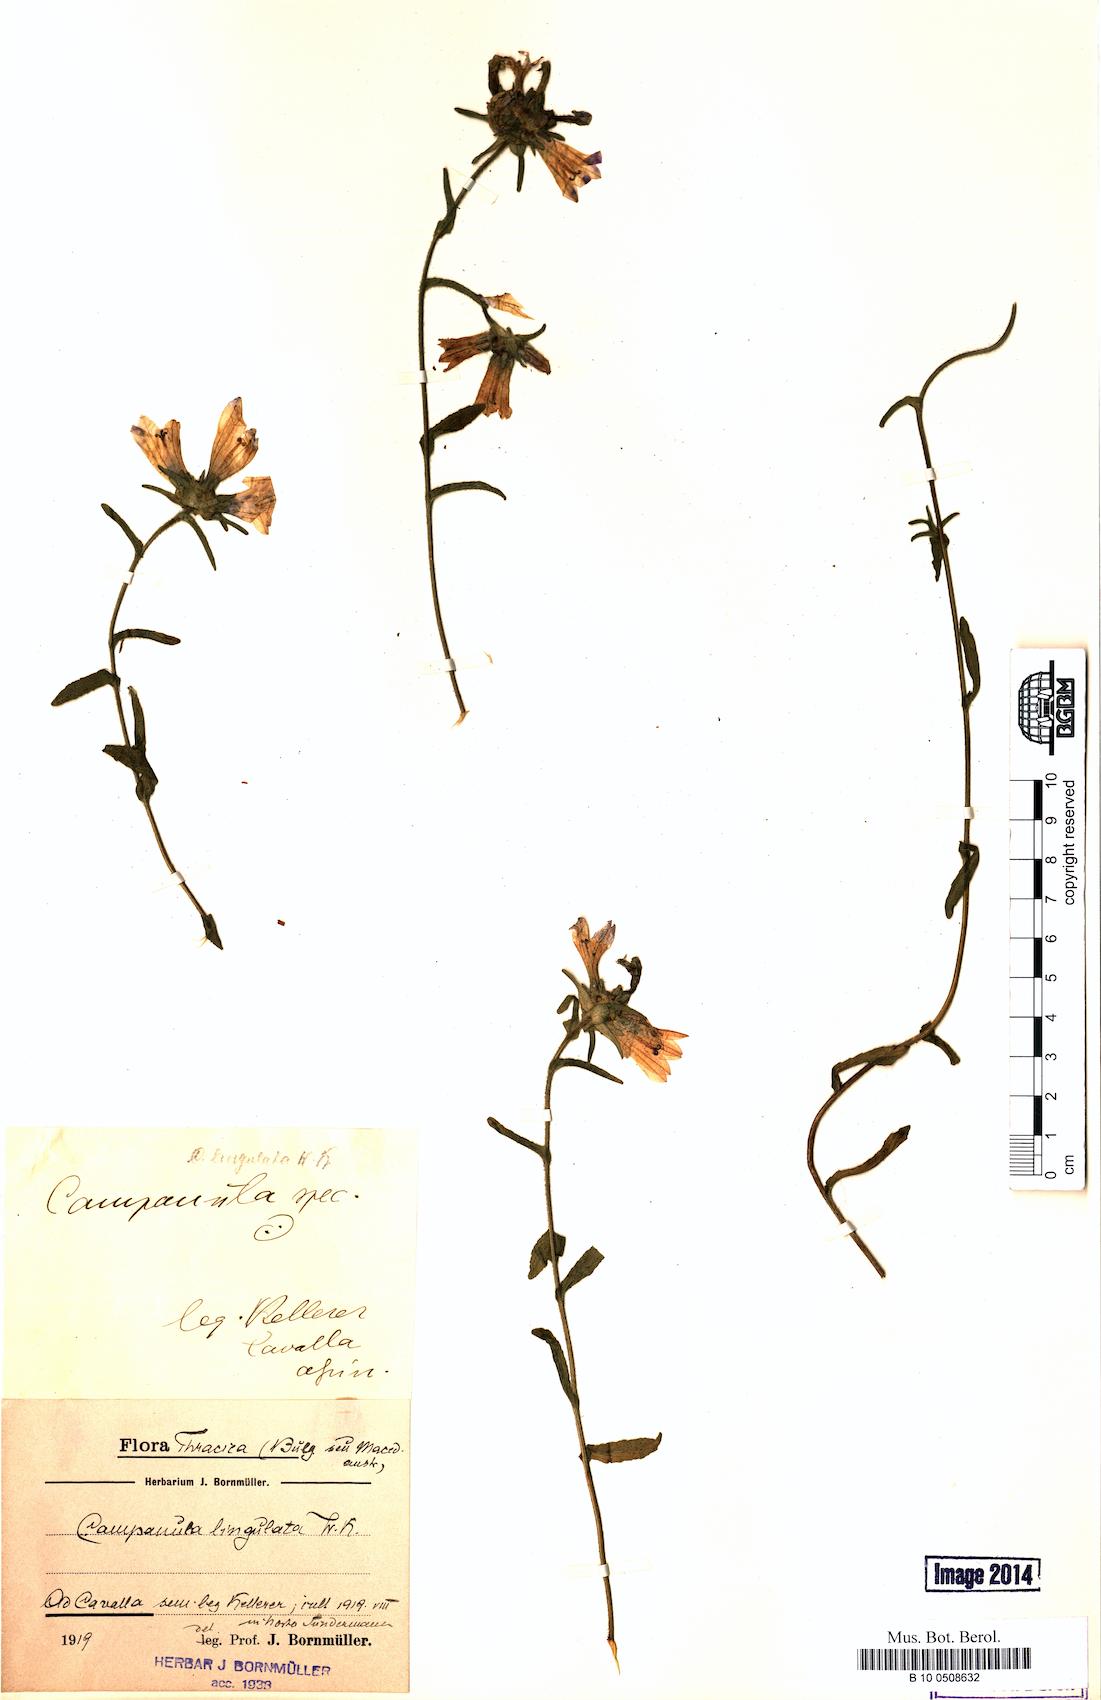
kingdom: Plantae
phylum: Tracheophyta
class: Magnoliopsida
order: Asterales
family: Campanulaceae
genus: Campanula
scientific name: Campanula lingulata
